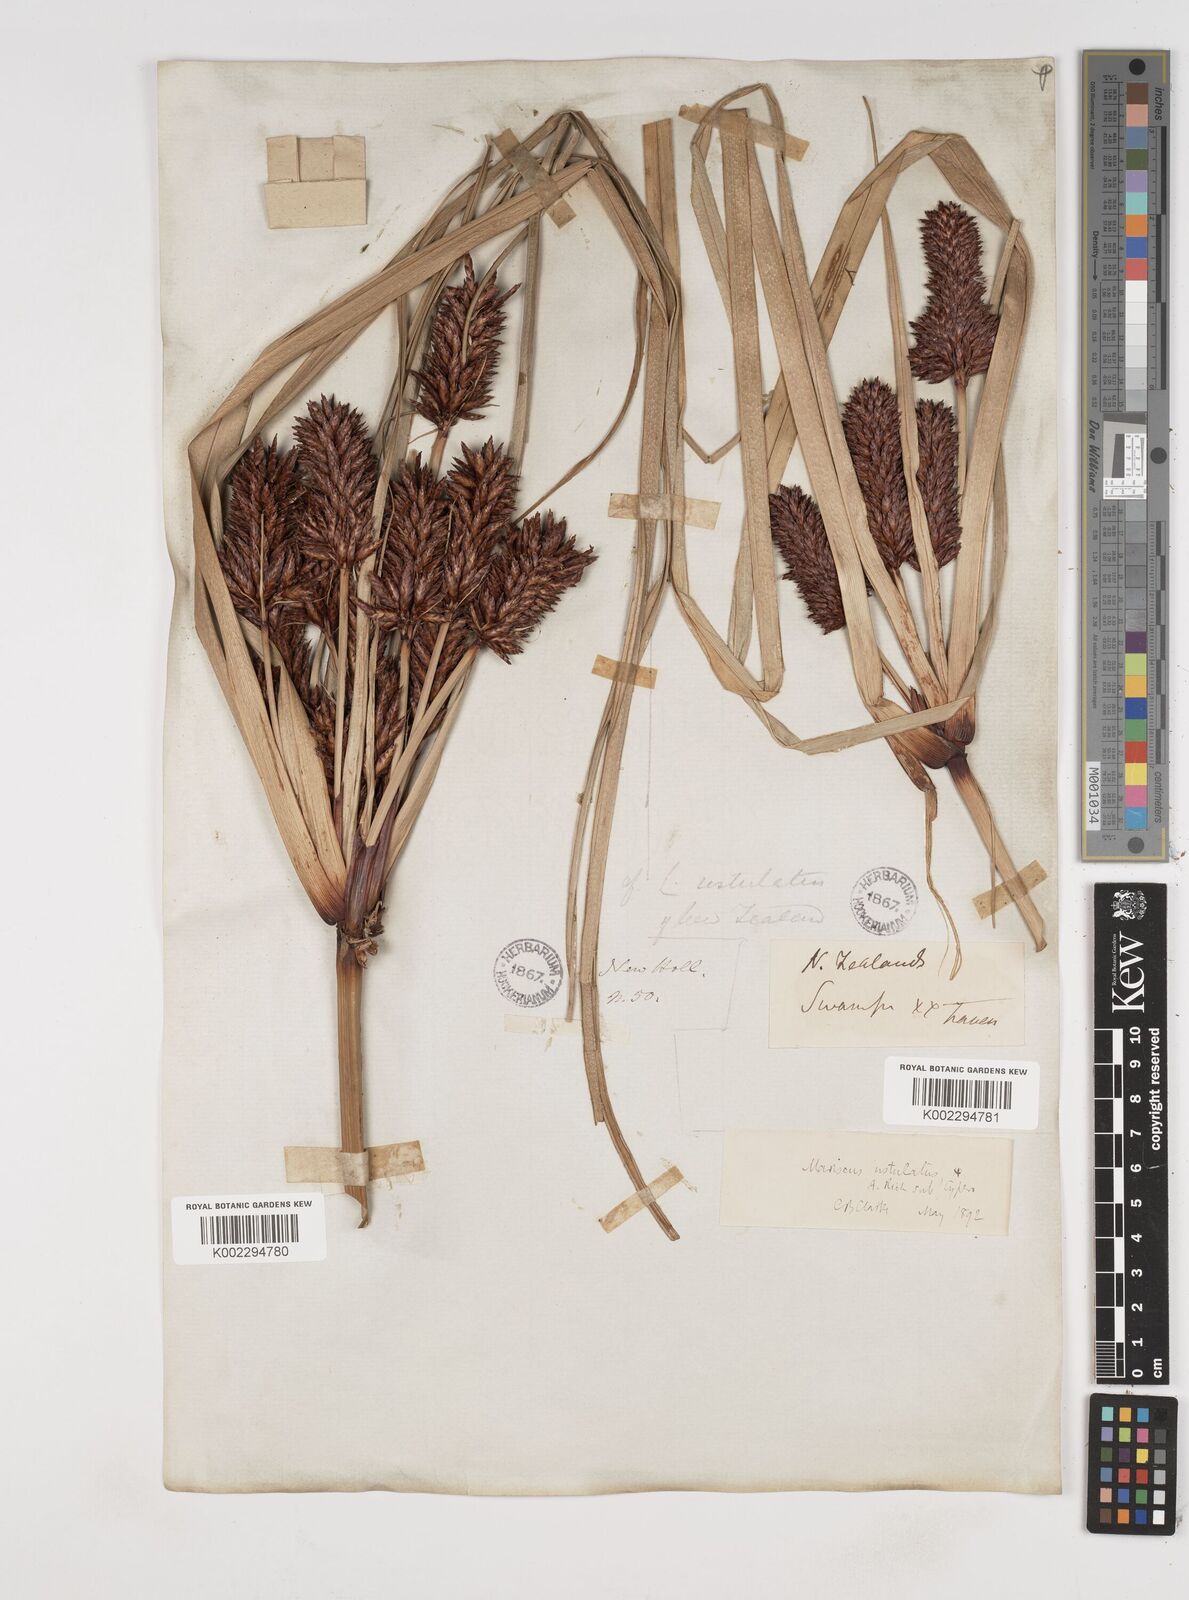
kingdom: Plantae
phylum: Tracheophyta
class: Liliopsida
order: Poales
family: Cyperaceae
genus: Cyperus
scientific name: Cyperus ustulatus
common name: Giant umbrella-sedge
